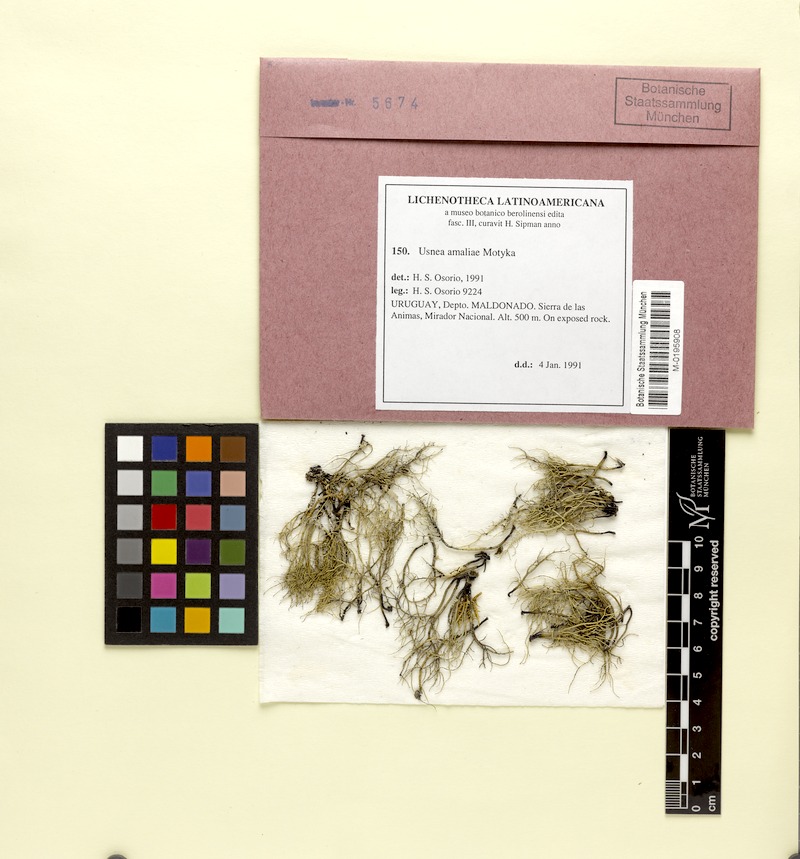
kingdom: Fungi
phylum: Ascomycota
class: Lecanoromycetes
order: Lecanorales
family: Parmeliaceae
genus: Usnea
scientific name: Usnea amaliae
